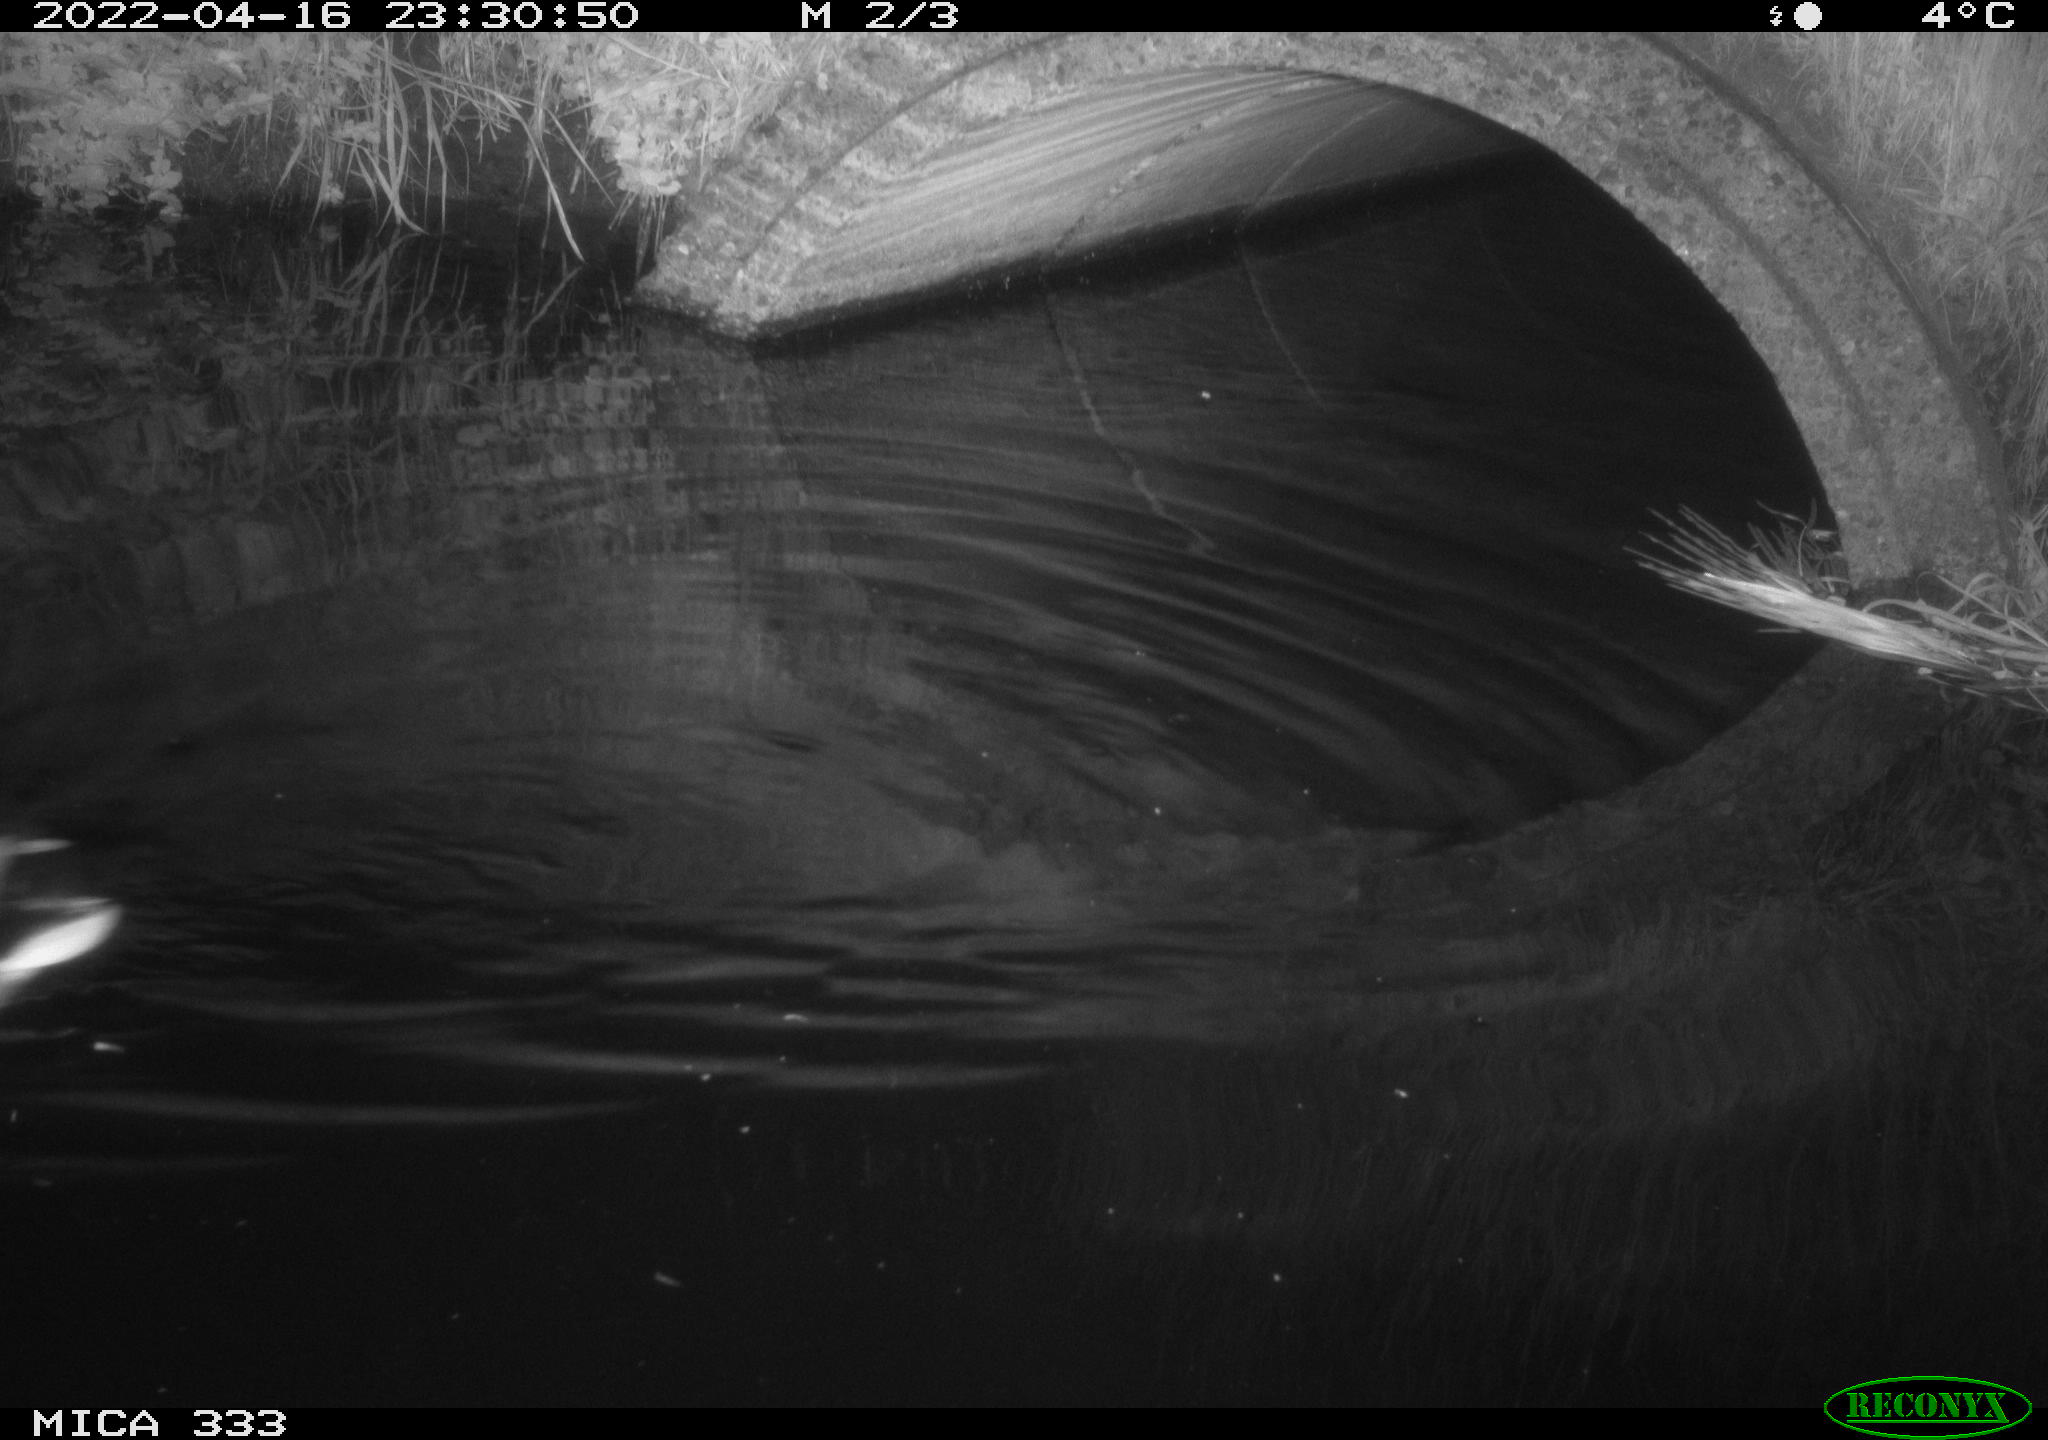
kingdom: Animalia
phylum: Chordata
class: Aves
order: Anseriformes
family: Anatidae
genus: Anas
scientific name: Anas platyrhynchos
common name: Mallard
